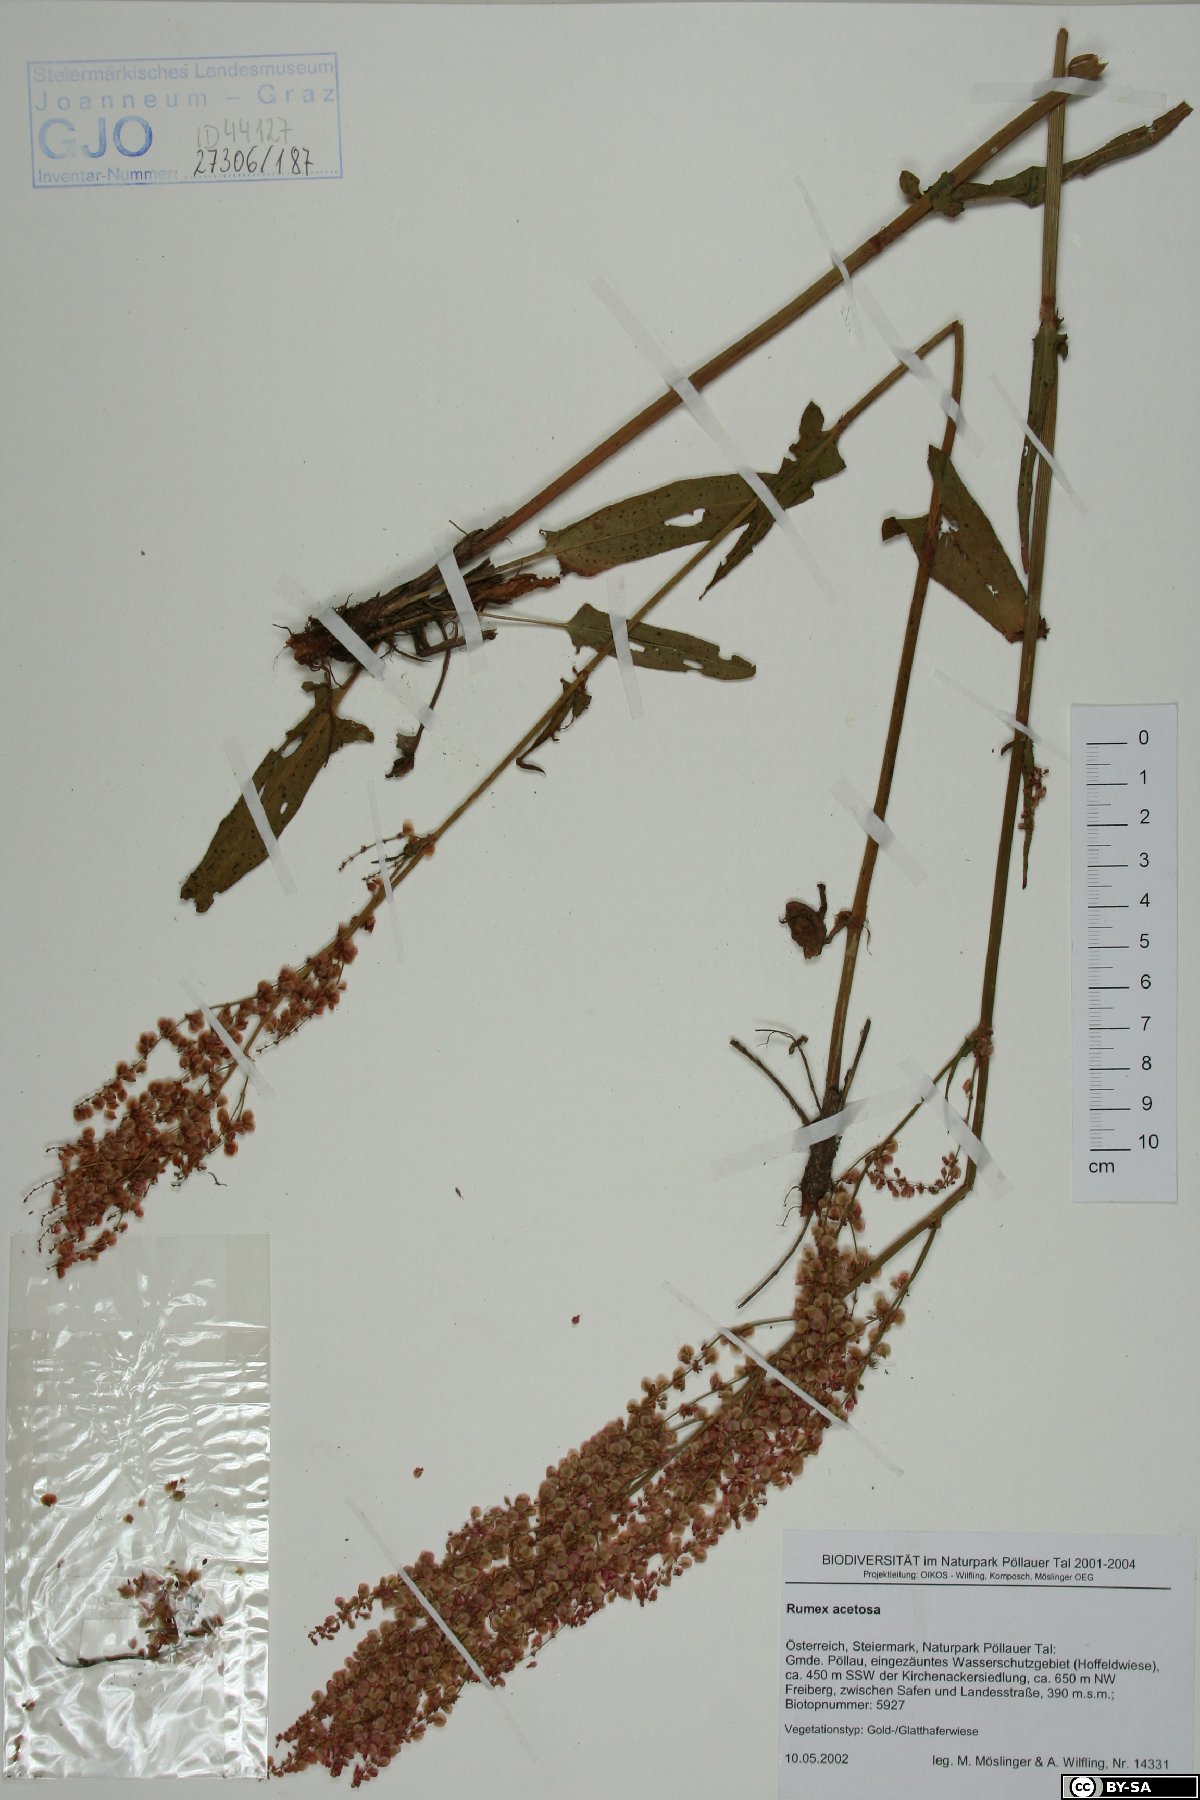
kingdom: Plantae
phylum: Tracheophyta
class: Magnoliopsida
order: Caryophyllales
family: Polygonaceae
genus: Rumex
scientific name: Rumex acetosa
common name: Garden sorrel
